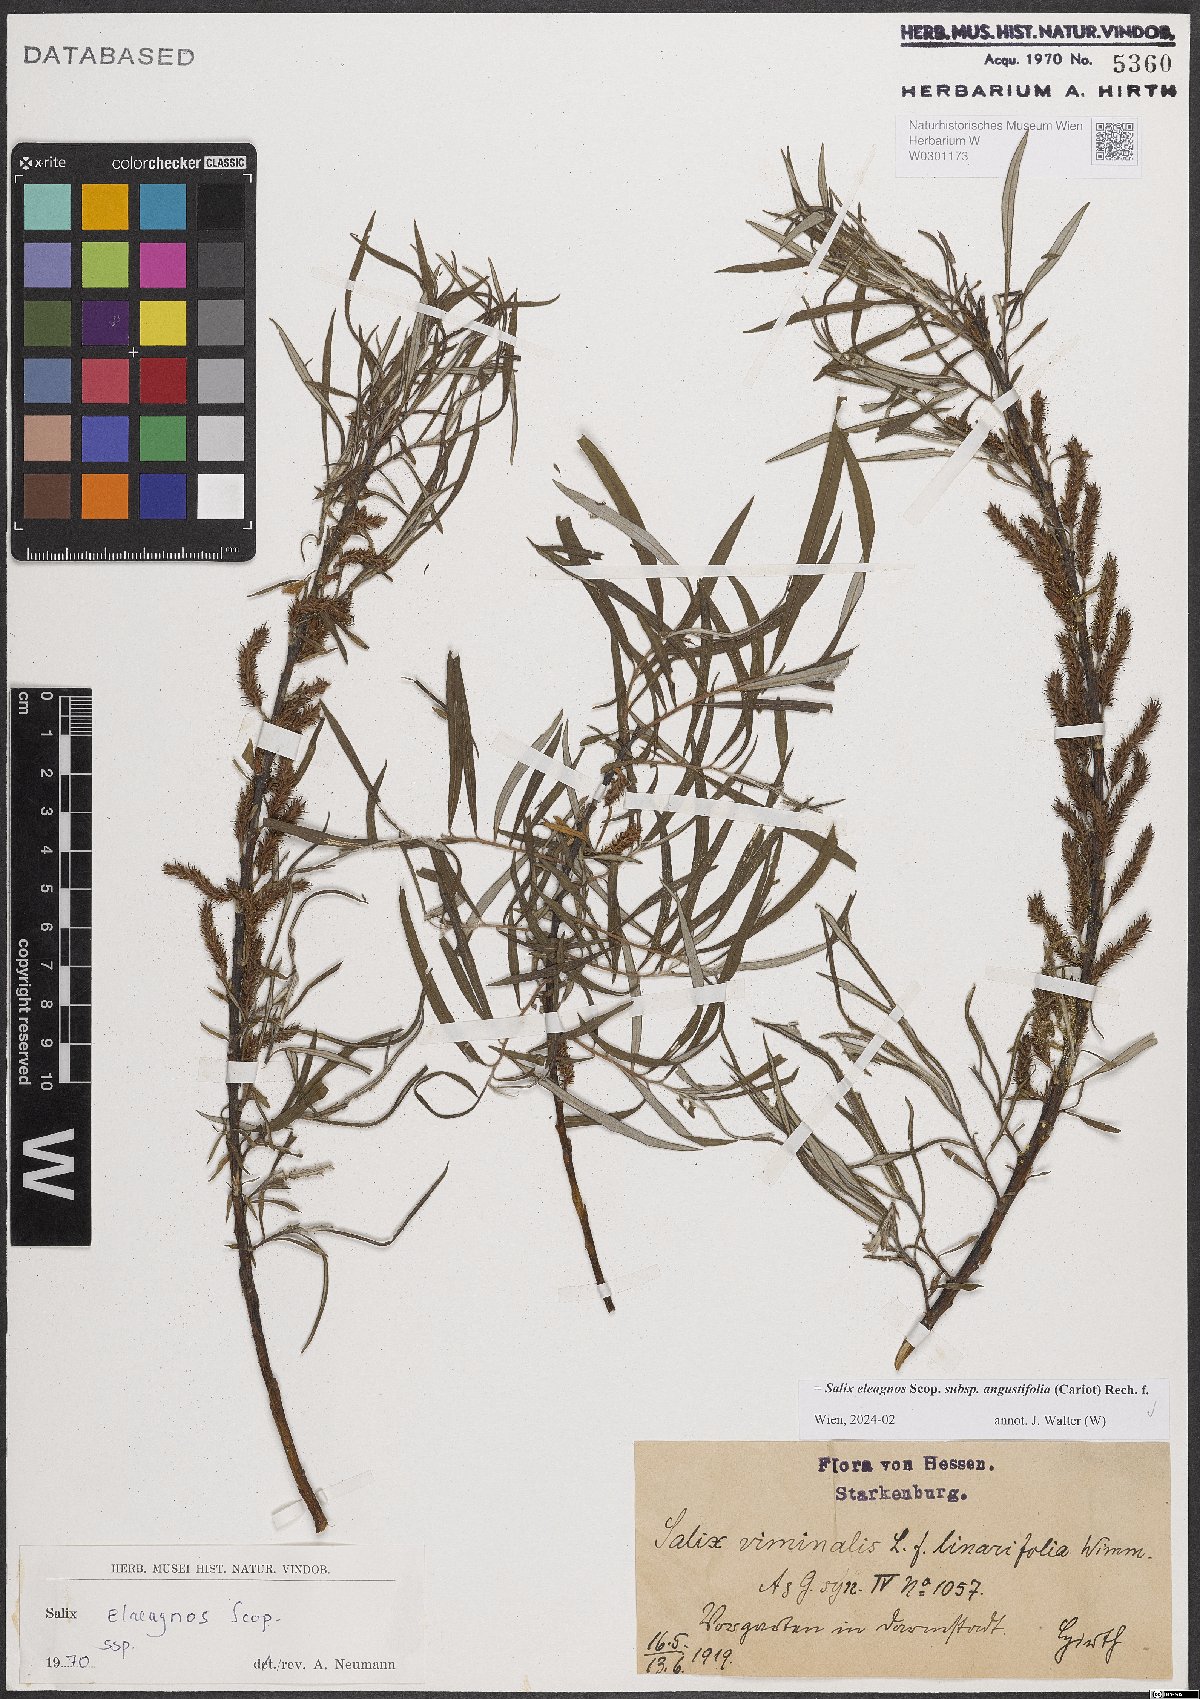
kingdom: Plantae
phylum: Tracheophyta
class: Magnoliopsida
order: Malpighiales
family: Salicaceae
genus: Salix
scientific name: Salix eleagnos
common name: Elaeagnus willow
